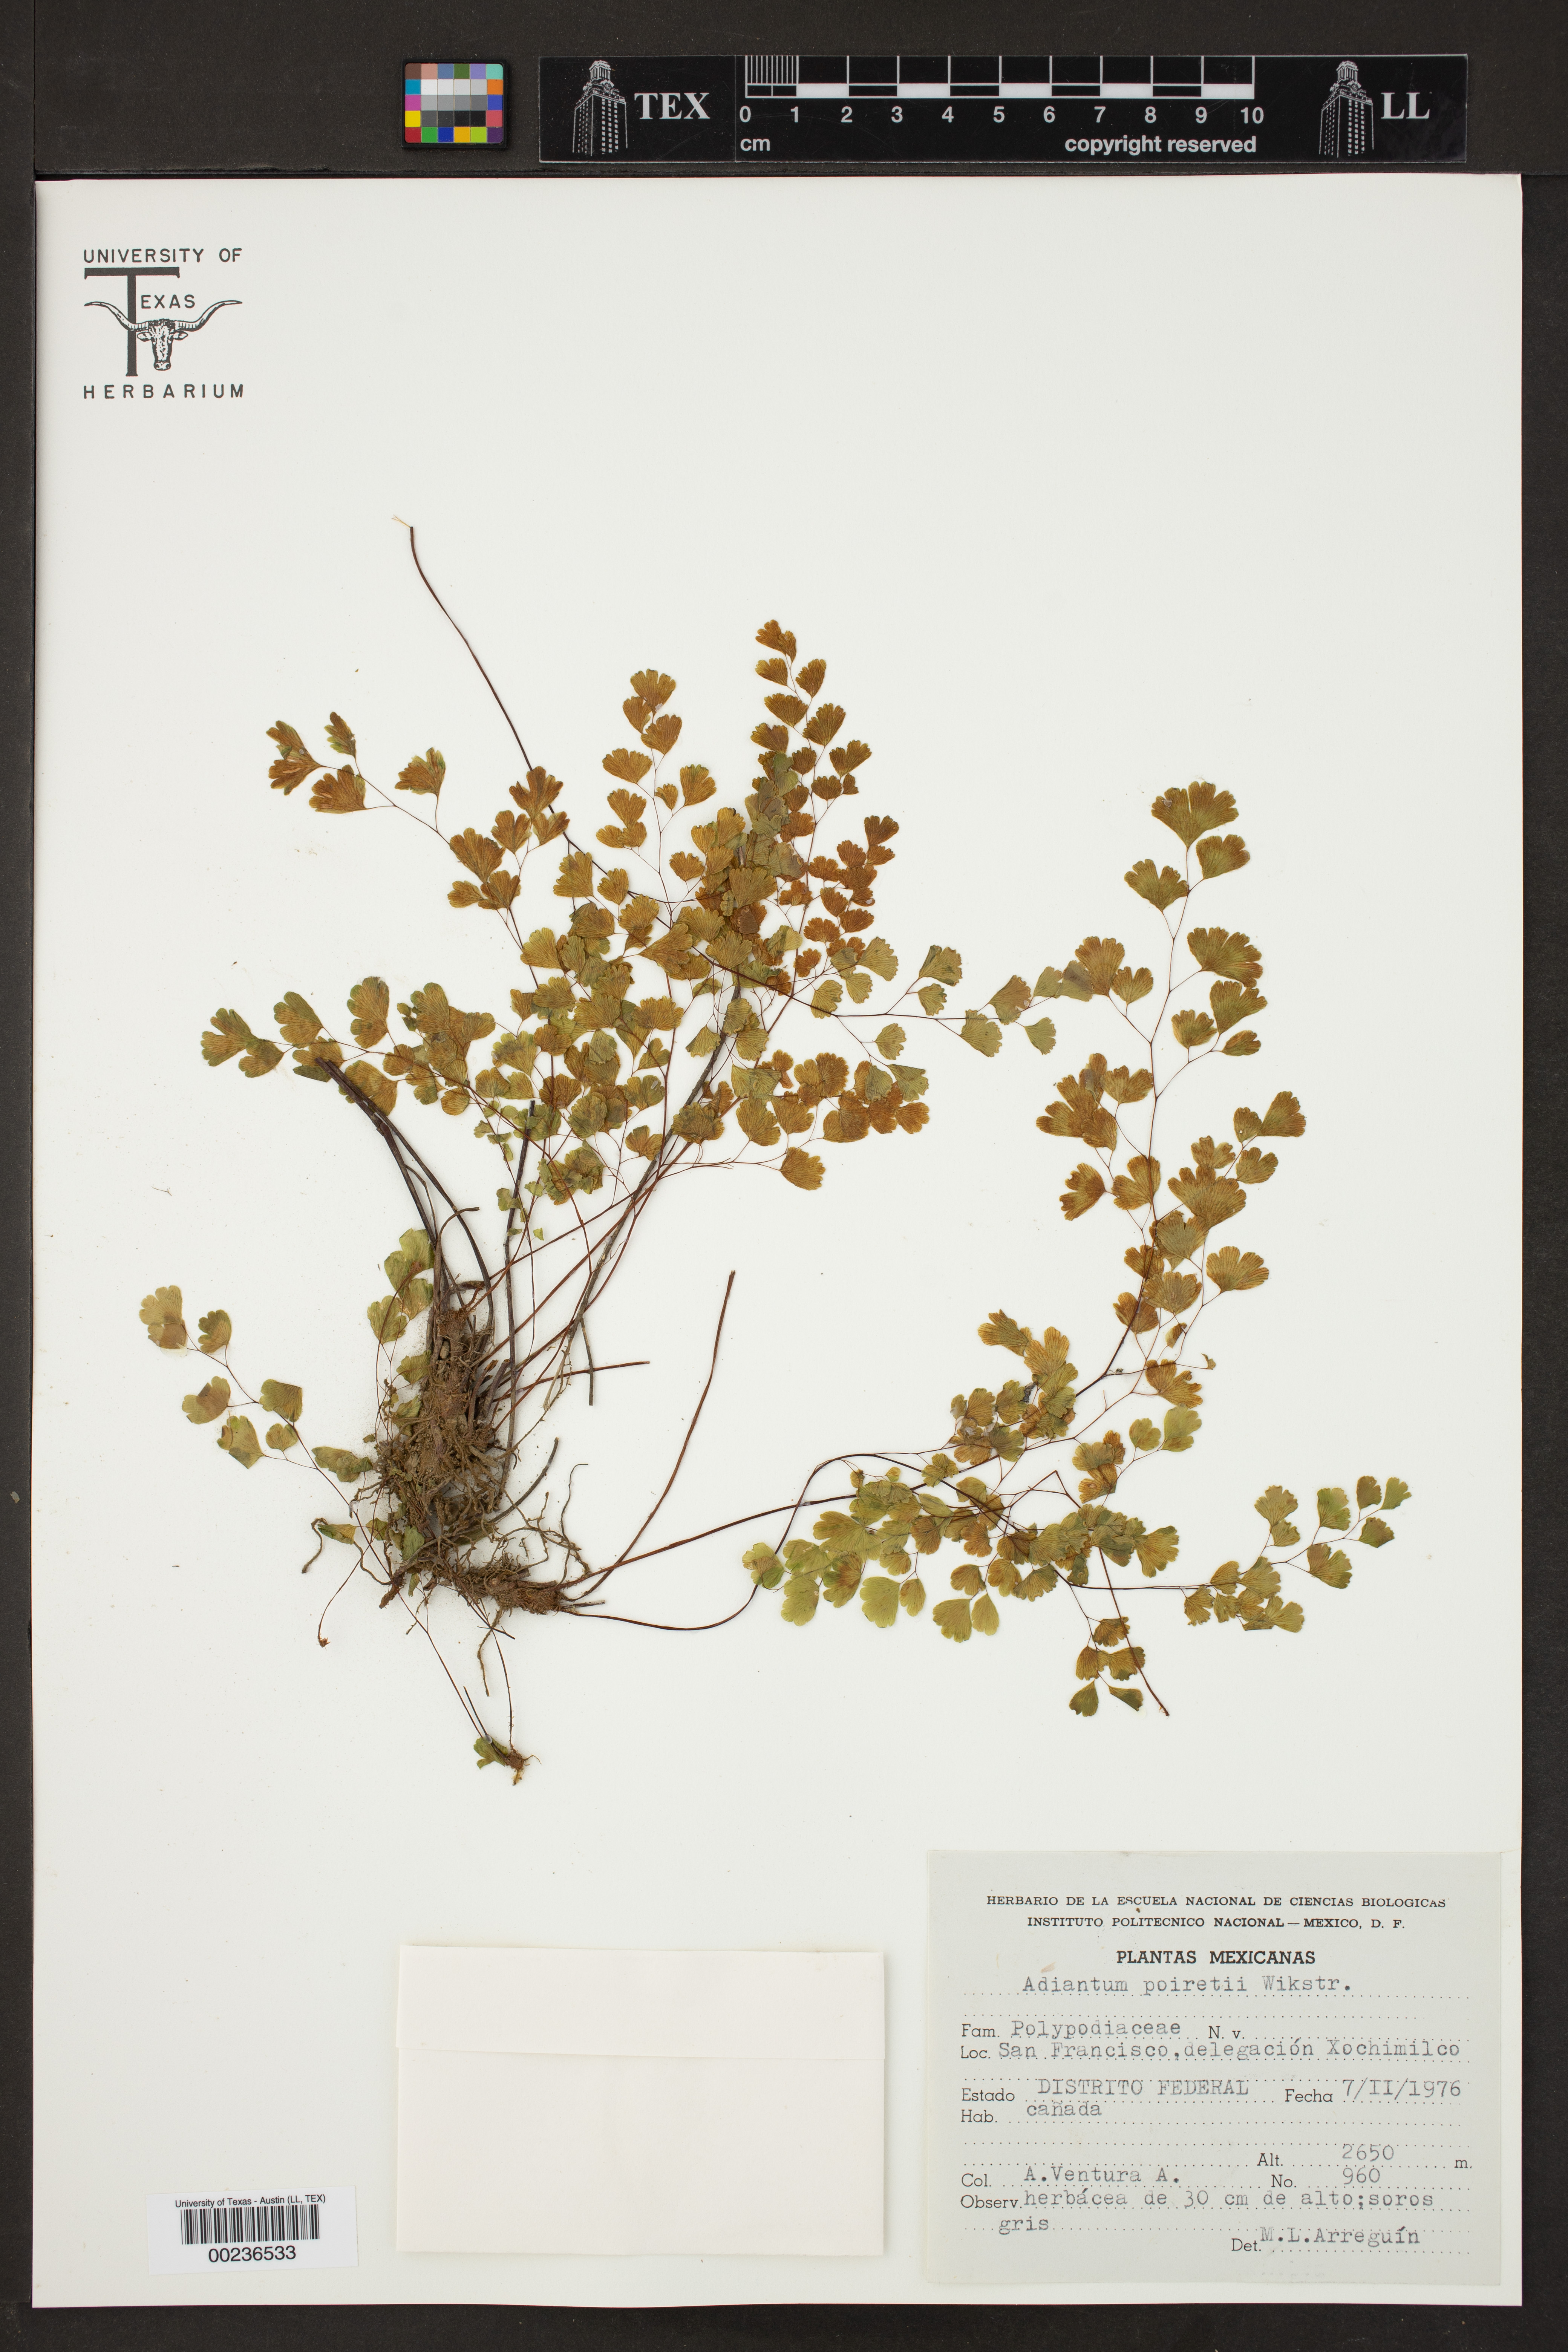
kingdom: Plantae
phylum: Tracheophyta
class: Polypodiopsida
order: Polypodiales
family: Pteridaceae
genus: Adiantum
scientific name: Adiantum poiretii
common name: Mexican maidenhair
